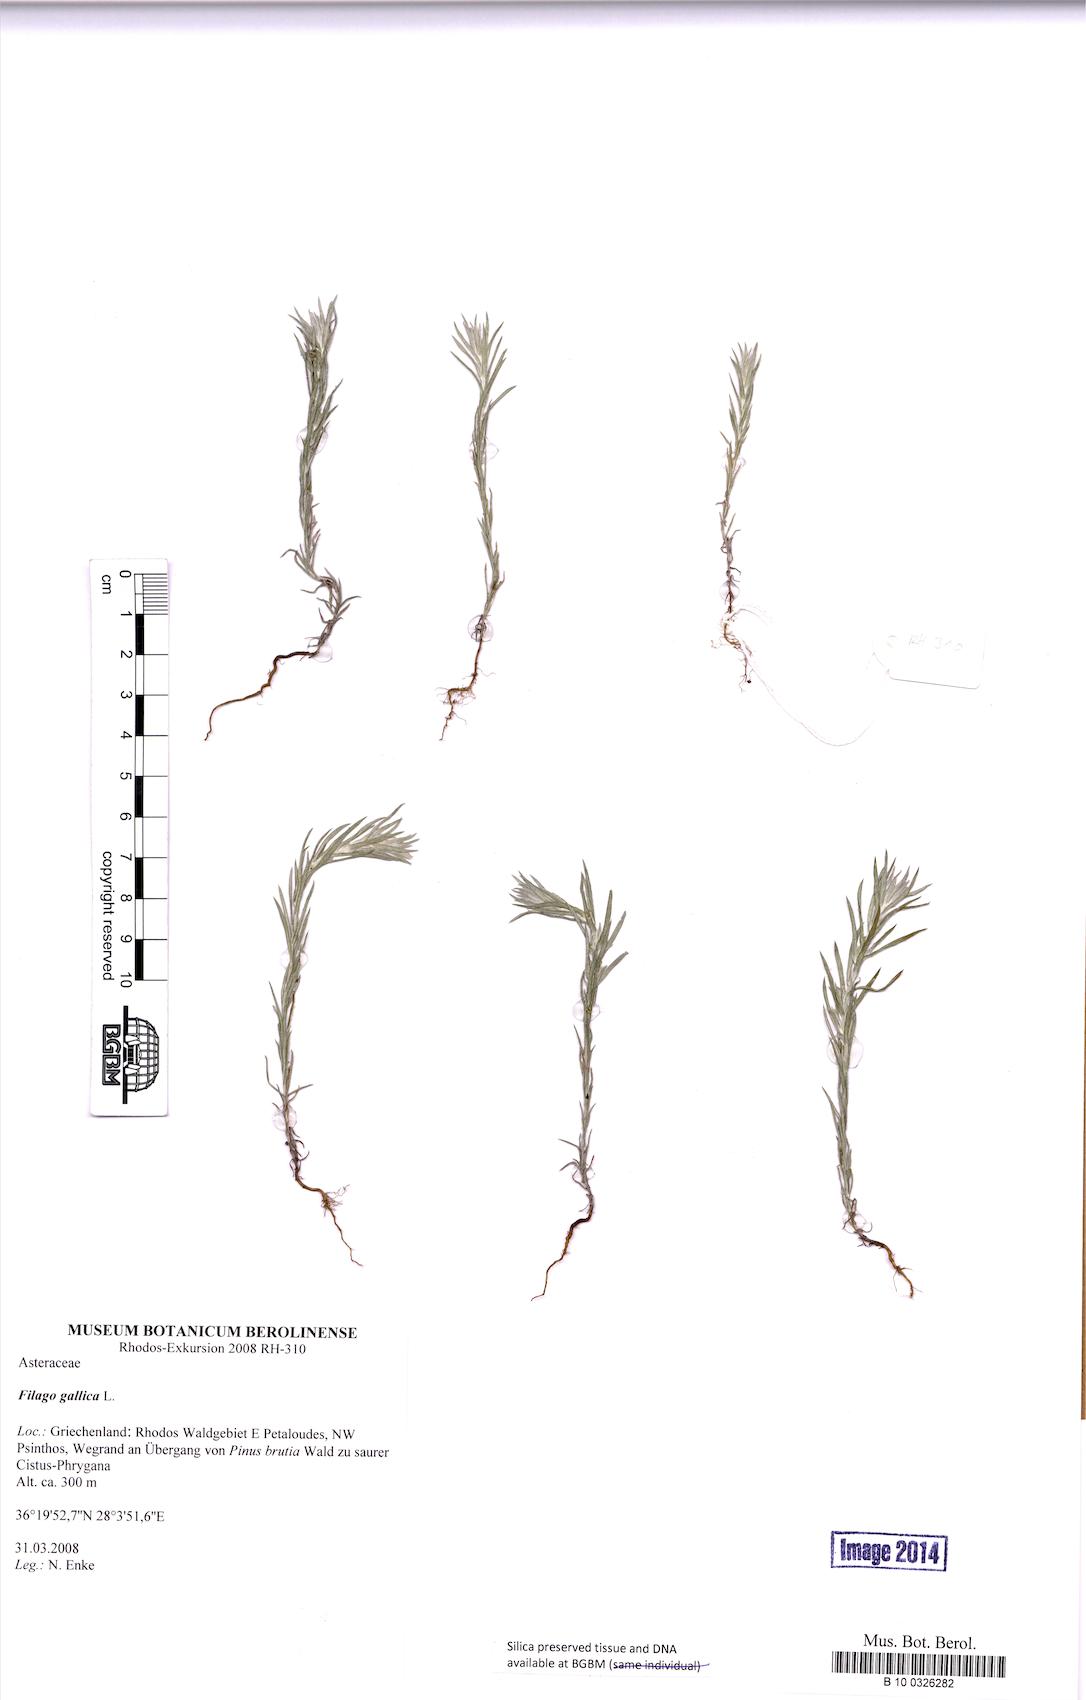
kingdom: Plantae
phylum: Tracheophyta
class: Magnoliopsida
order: Asterales
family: Asteraceae
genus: Logfia
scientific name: Logfia gallica
